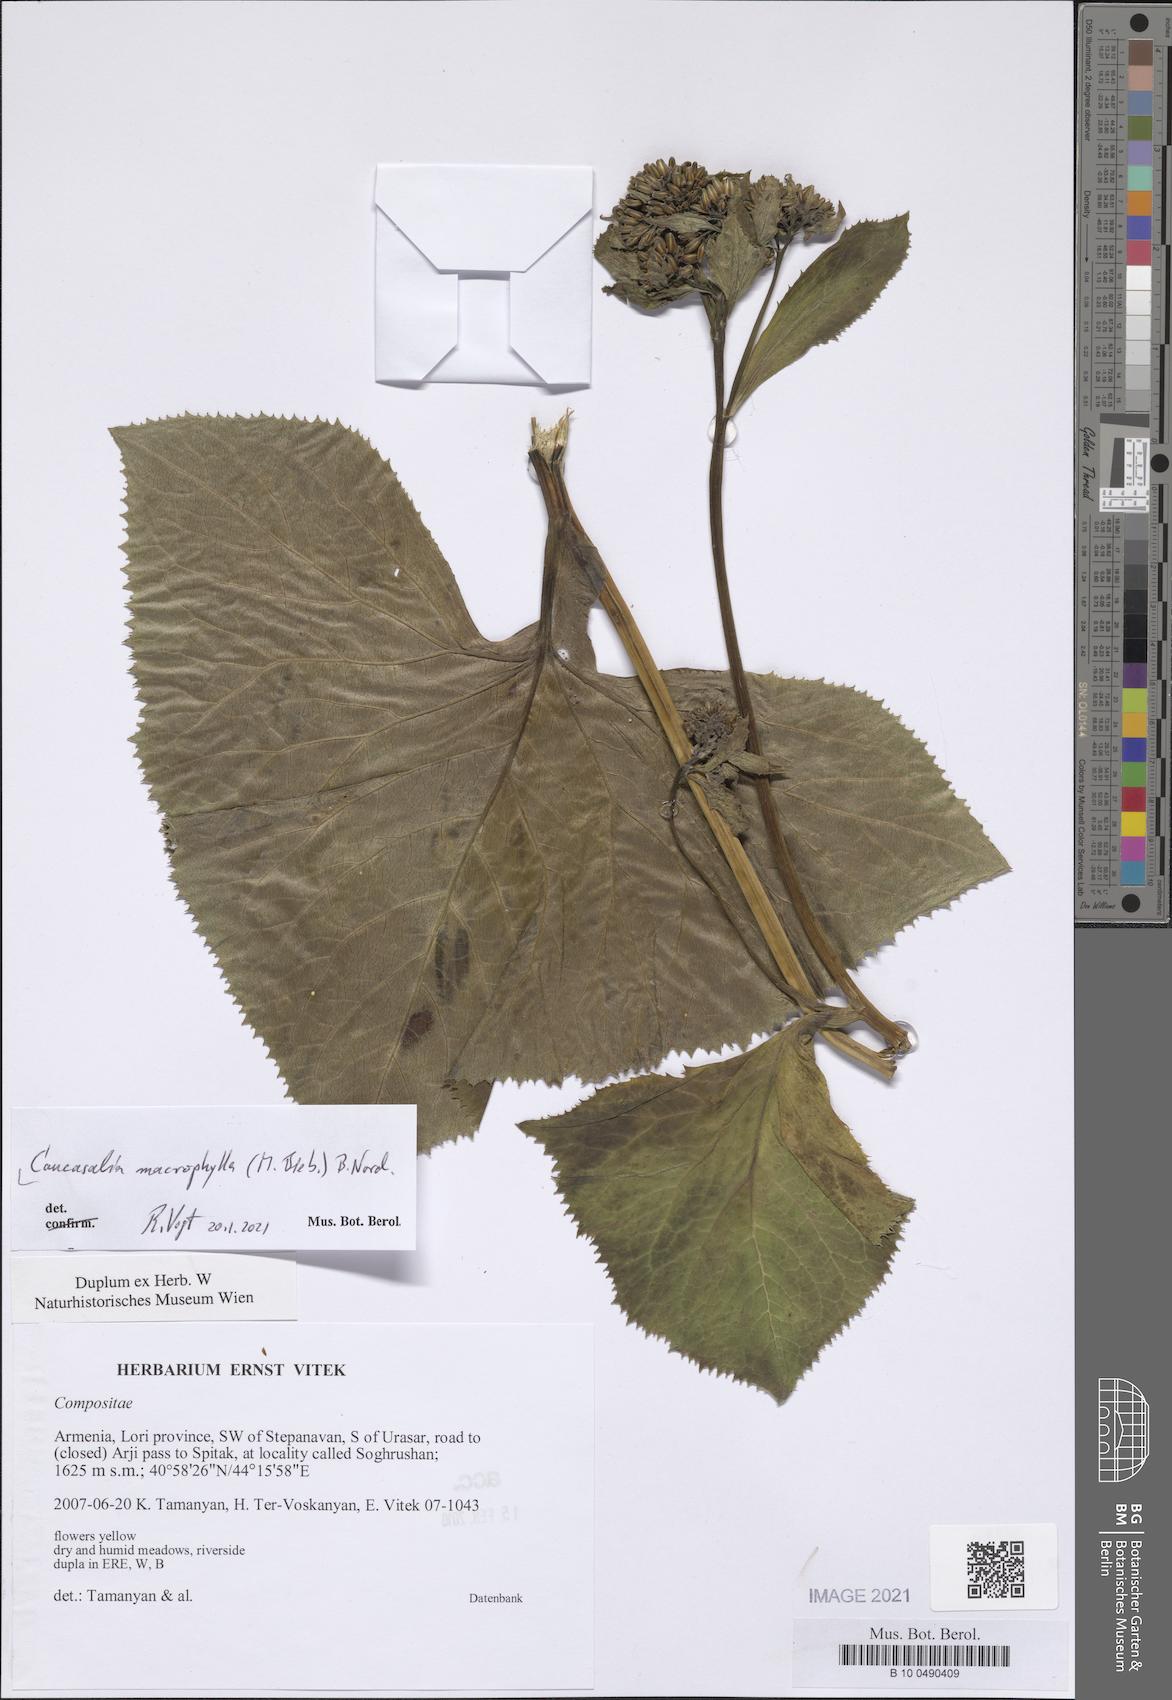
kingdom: Plantae
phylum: Tracheophyta
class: Magnoliopsida
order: Asterales
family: Asteraceae
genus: Caucasalia
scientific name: Caucasalia macrophylla
